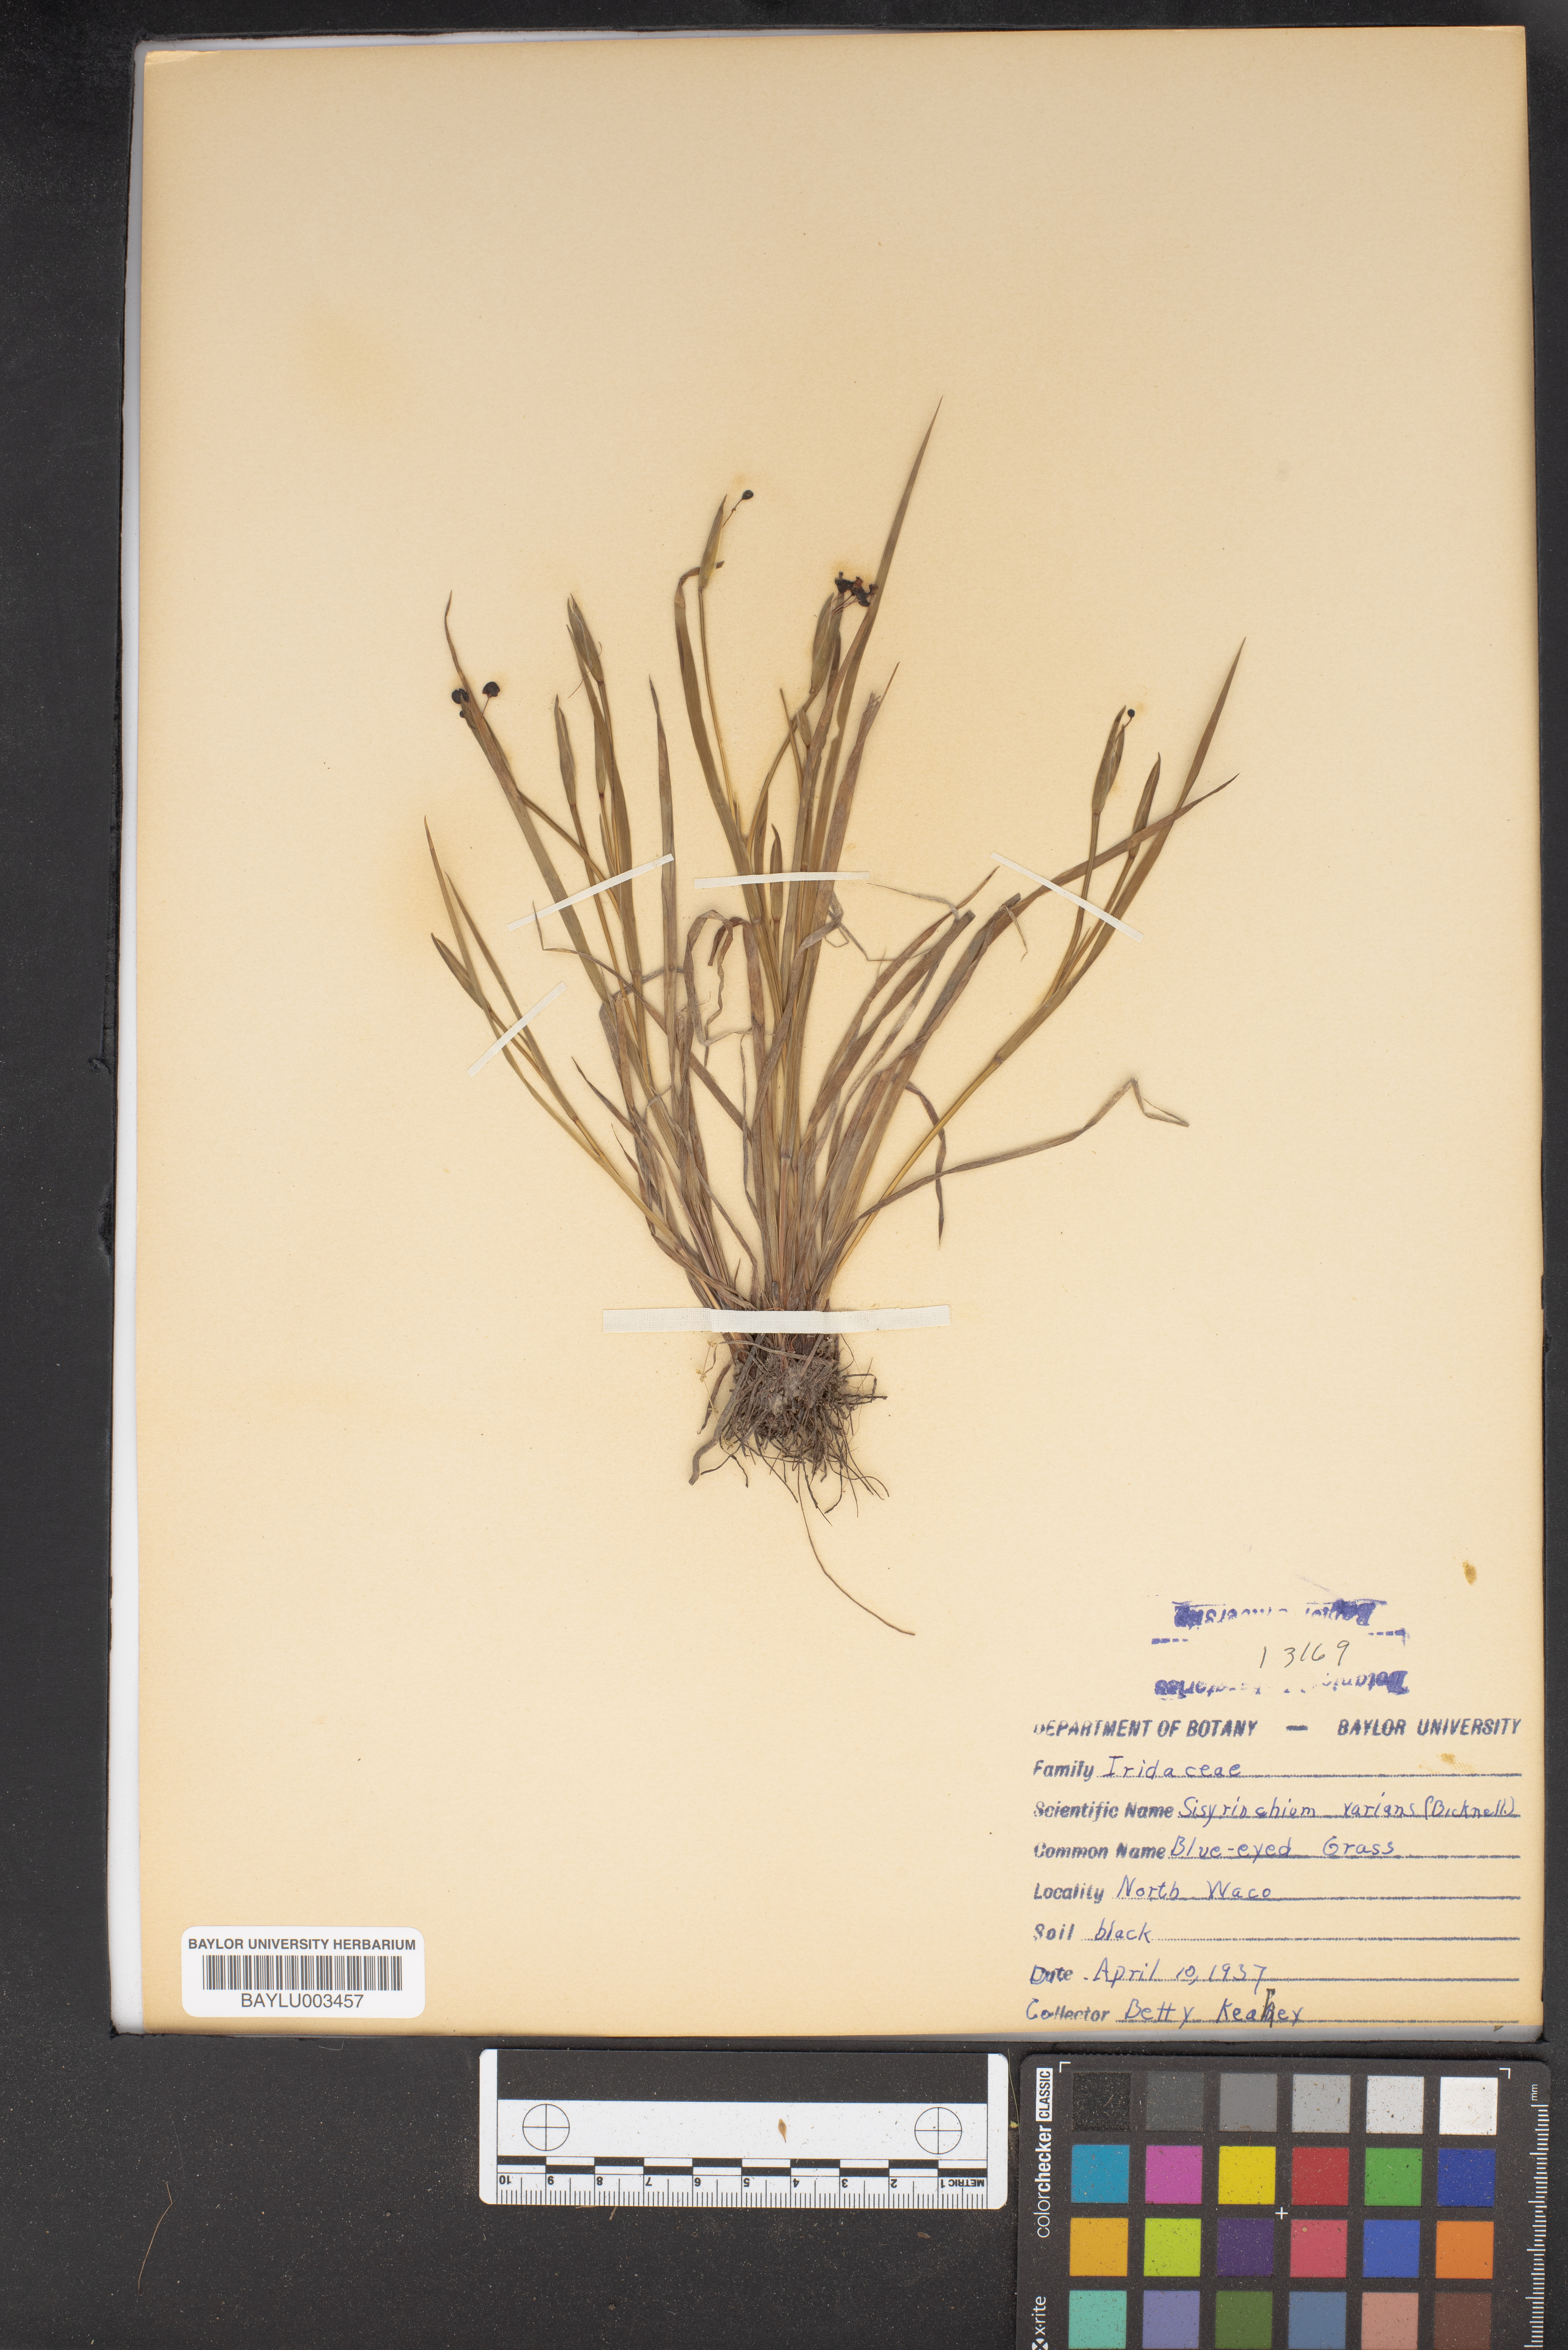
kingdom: Plantae
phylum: Tracheophyta
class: Liliopsida
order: Asparagales
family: Iridaceae
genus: Sisyrinchium
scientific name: Sisyrinchium pruinosum
